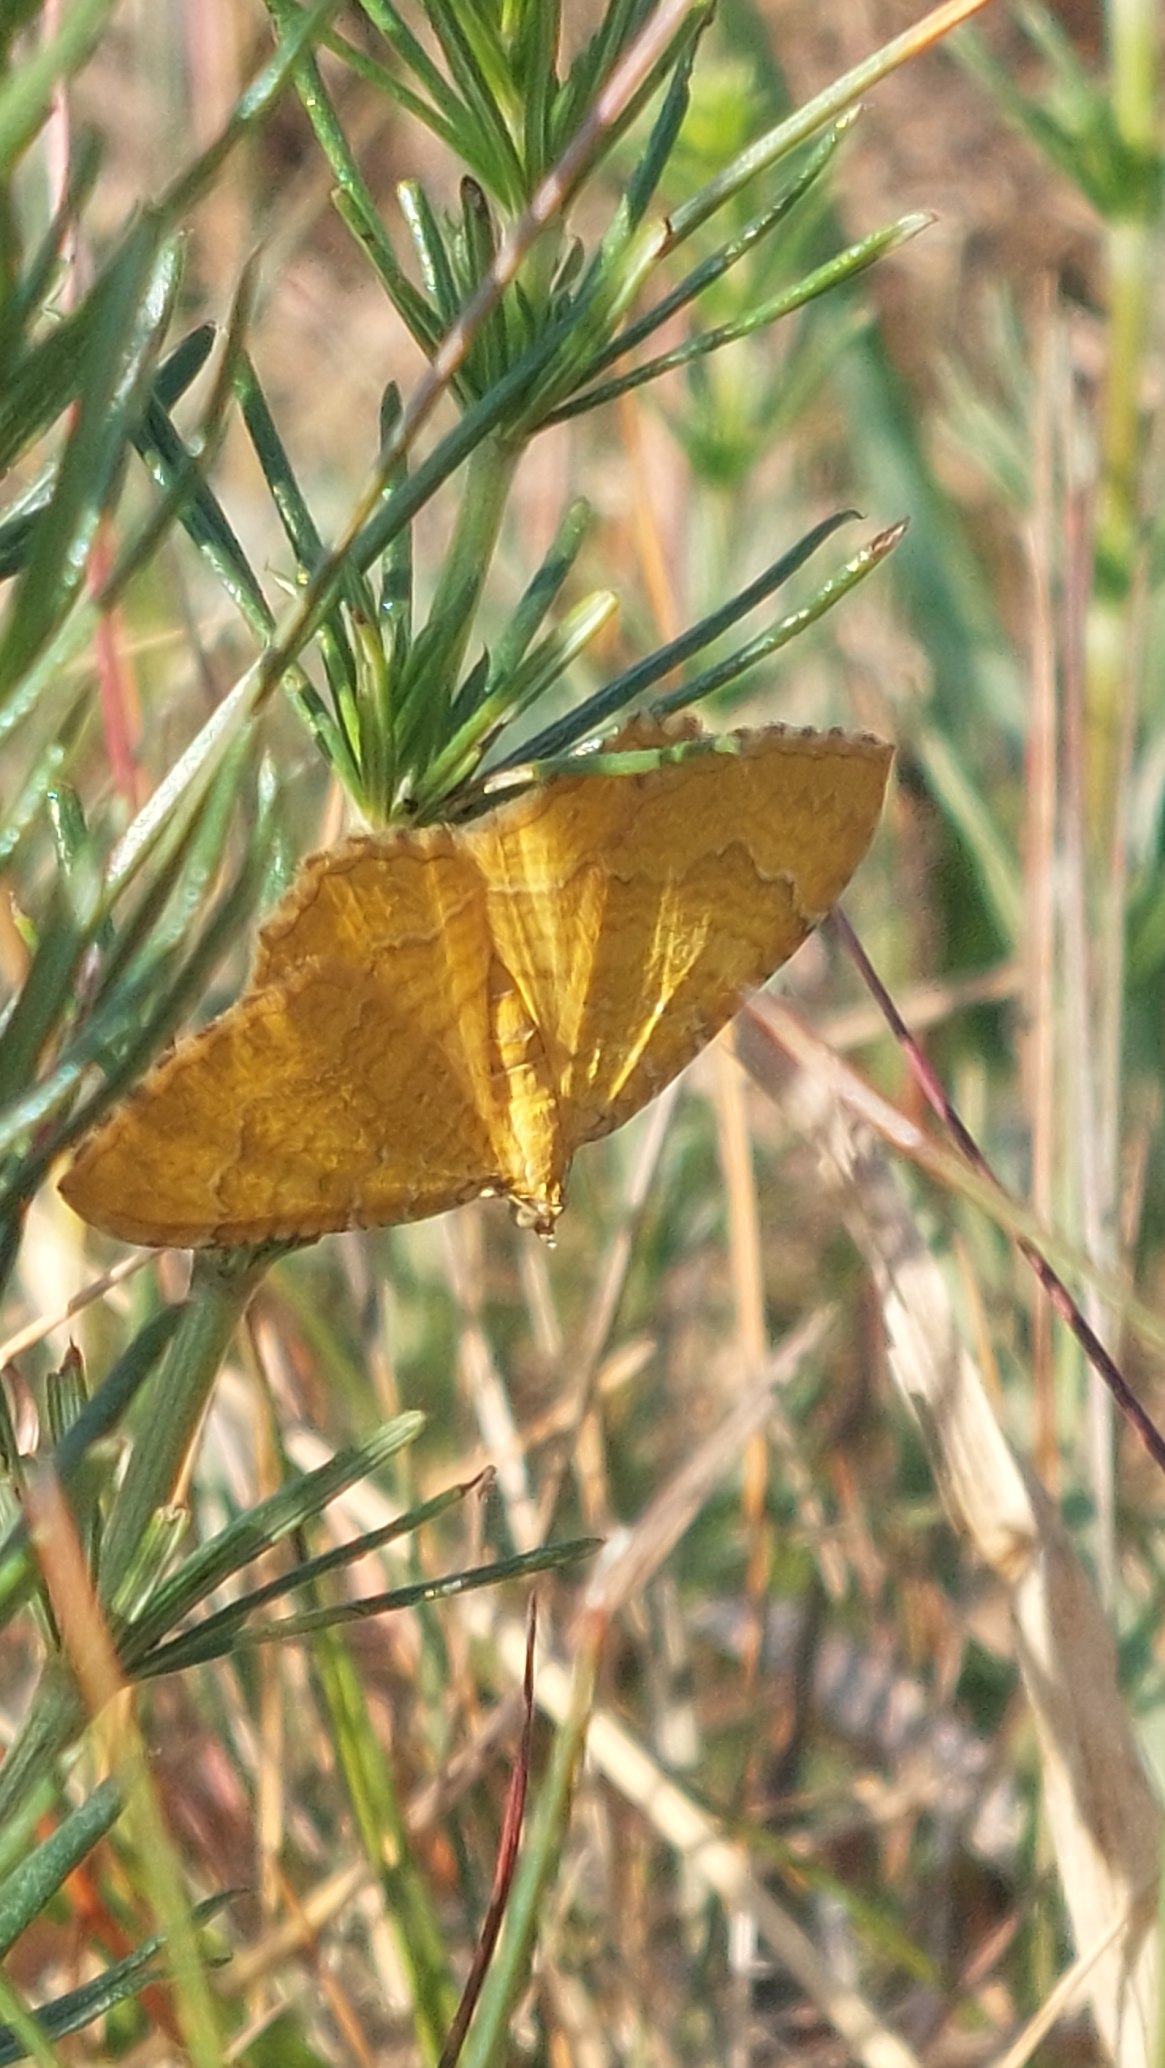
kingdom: Animalia
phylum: Arthropoda
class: Insecta
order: Lepidoptera
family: Geometridae
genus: Camptogramma
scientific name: Camptogramma bilineata
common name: Okkergul bladmåler
